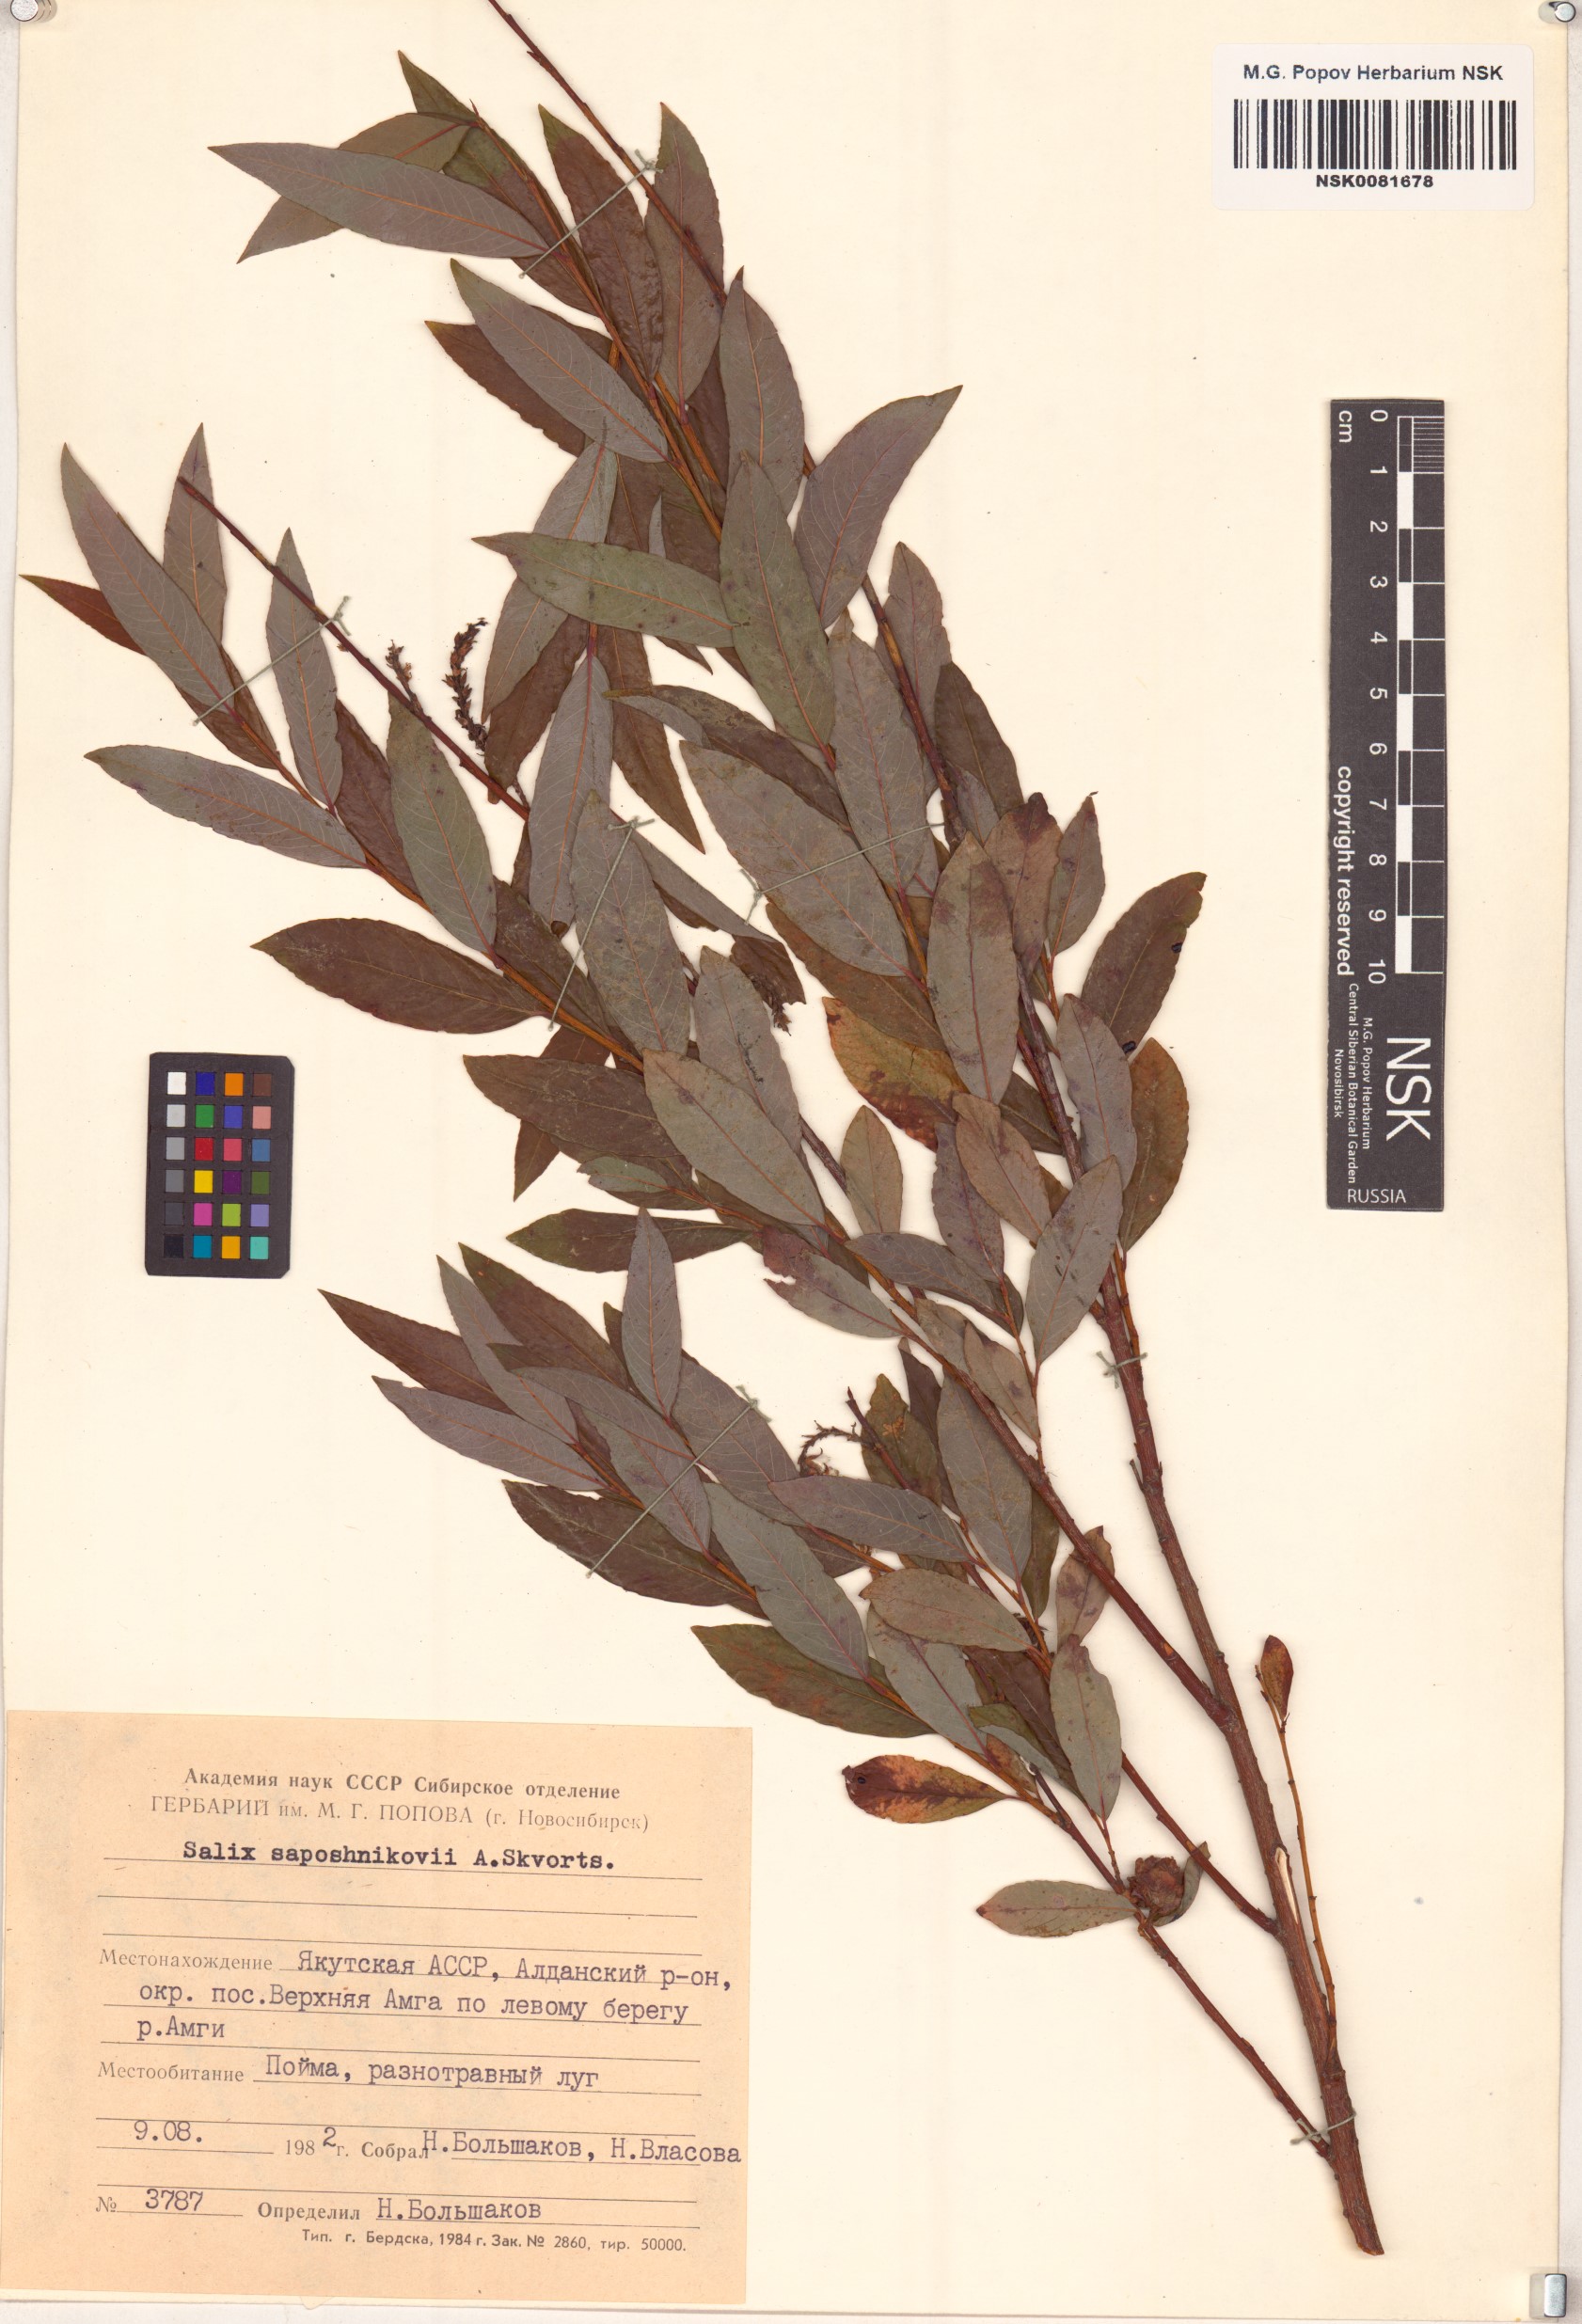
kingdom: Plantae
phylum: Tracheophyta
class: Magnoliopsida
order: Malpighiales
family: Salicaceae
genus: Salix
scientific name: Salix saposhnikovii
